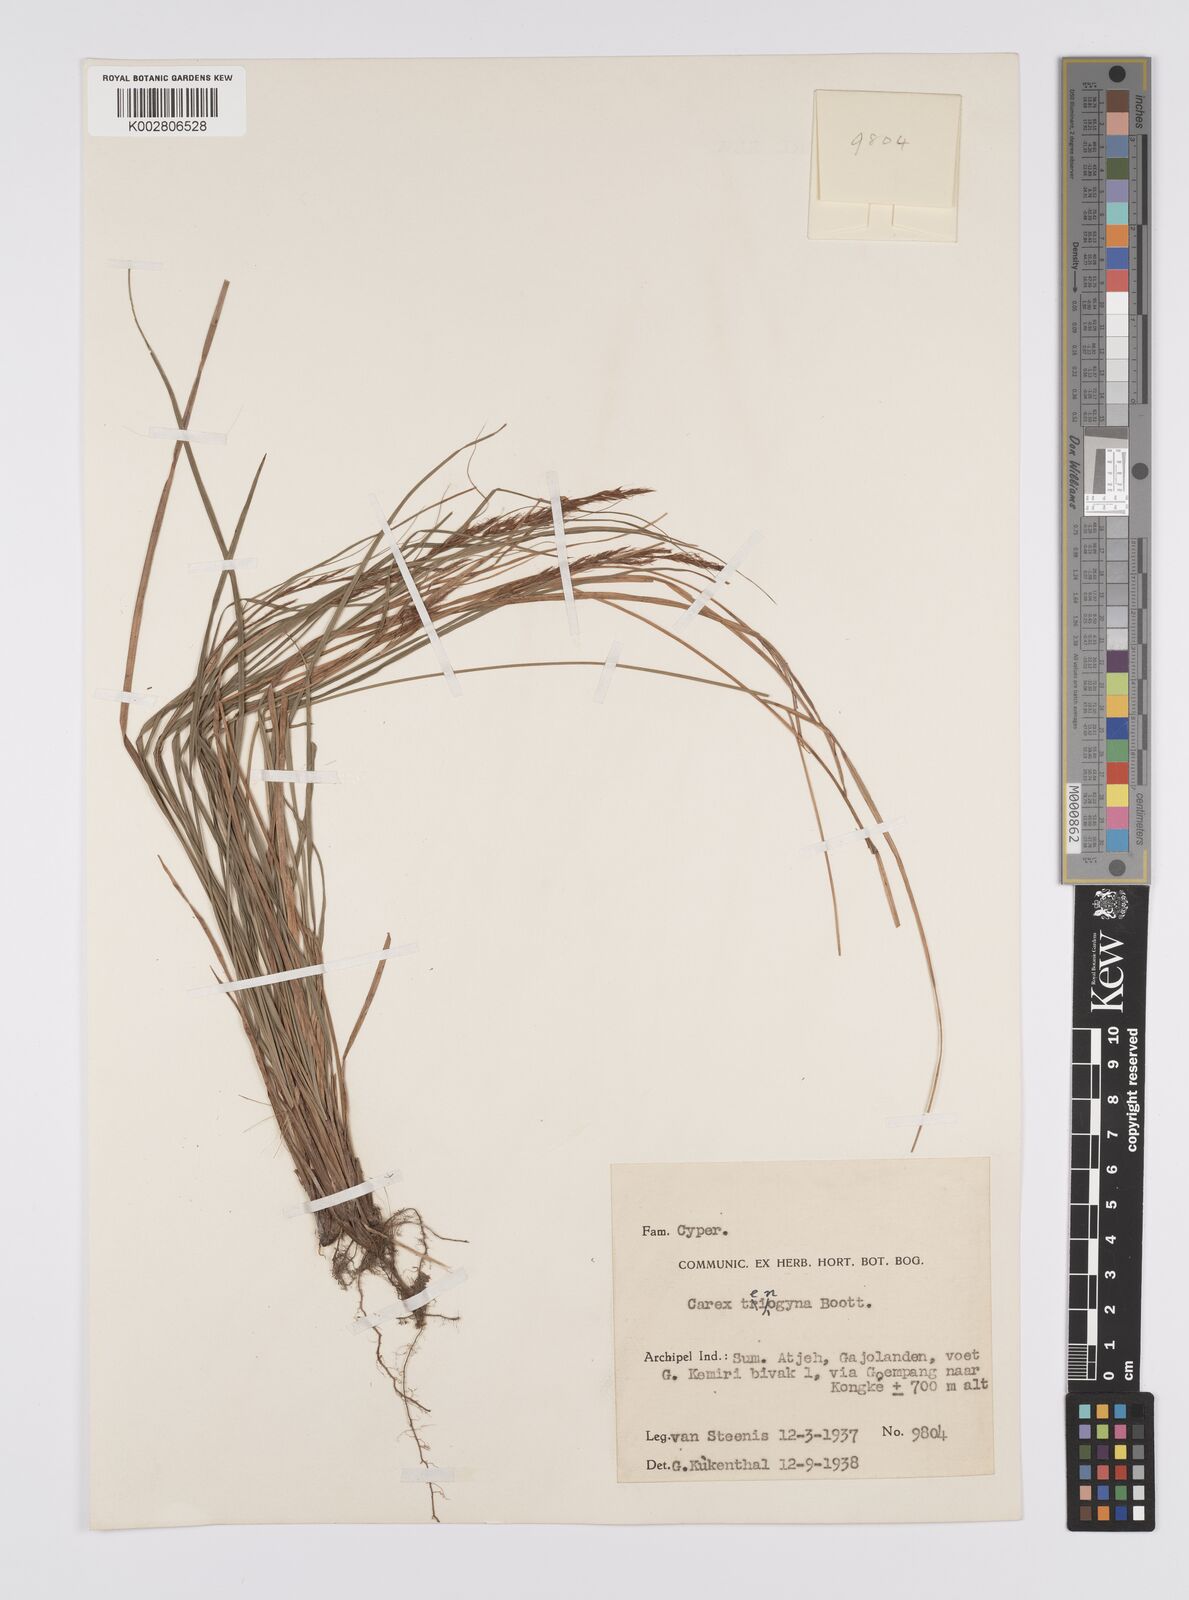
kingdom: Plantae
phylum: Tracheophyta
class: Liliopsida
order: Poales
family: Cyperaceae
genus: Carex
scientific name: Carex teinogyna
